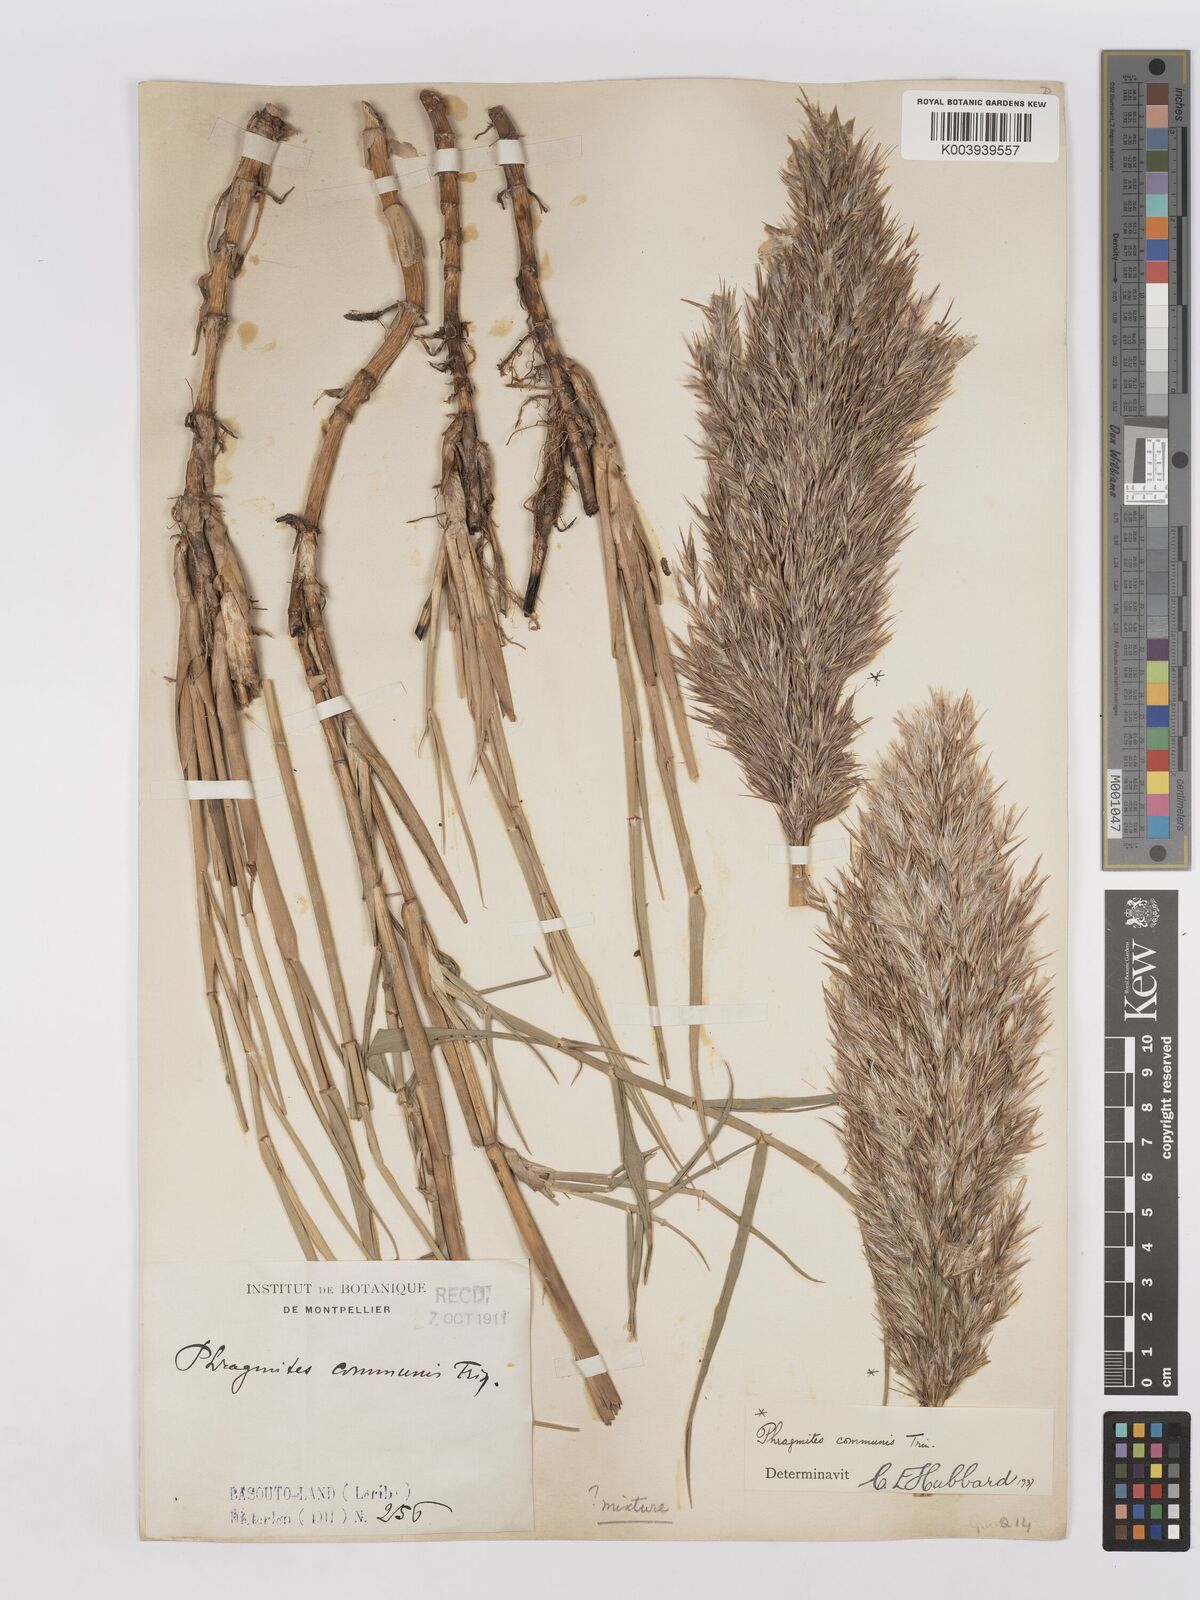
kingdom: Plantae
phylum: Tracheophyta
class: Liliopsida
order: Poales
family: Poaceae
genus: Phragmites
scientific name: Phragmites australis
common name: Common reed
